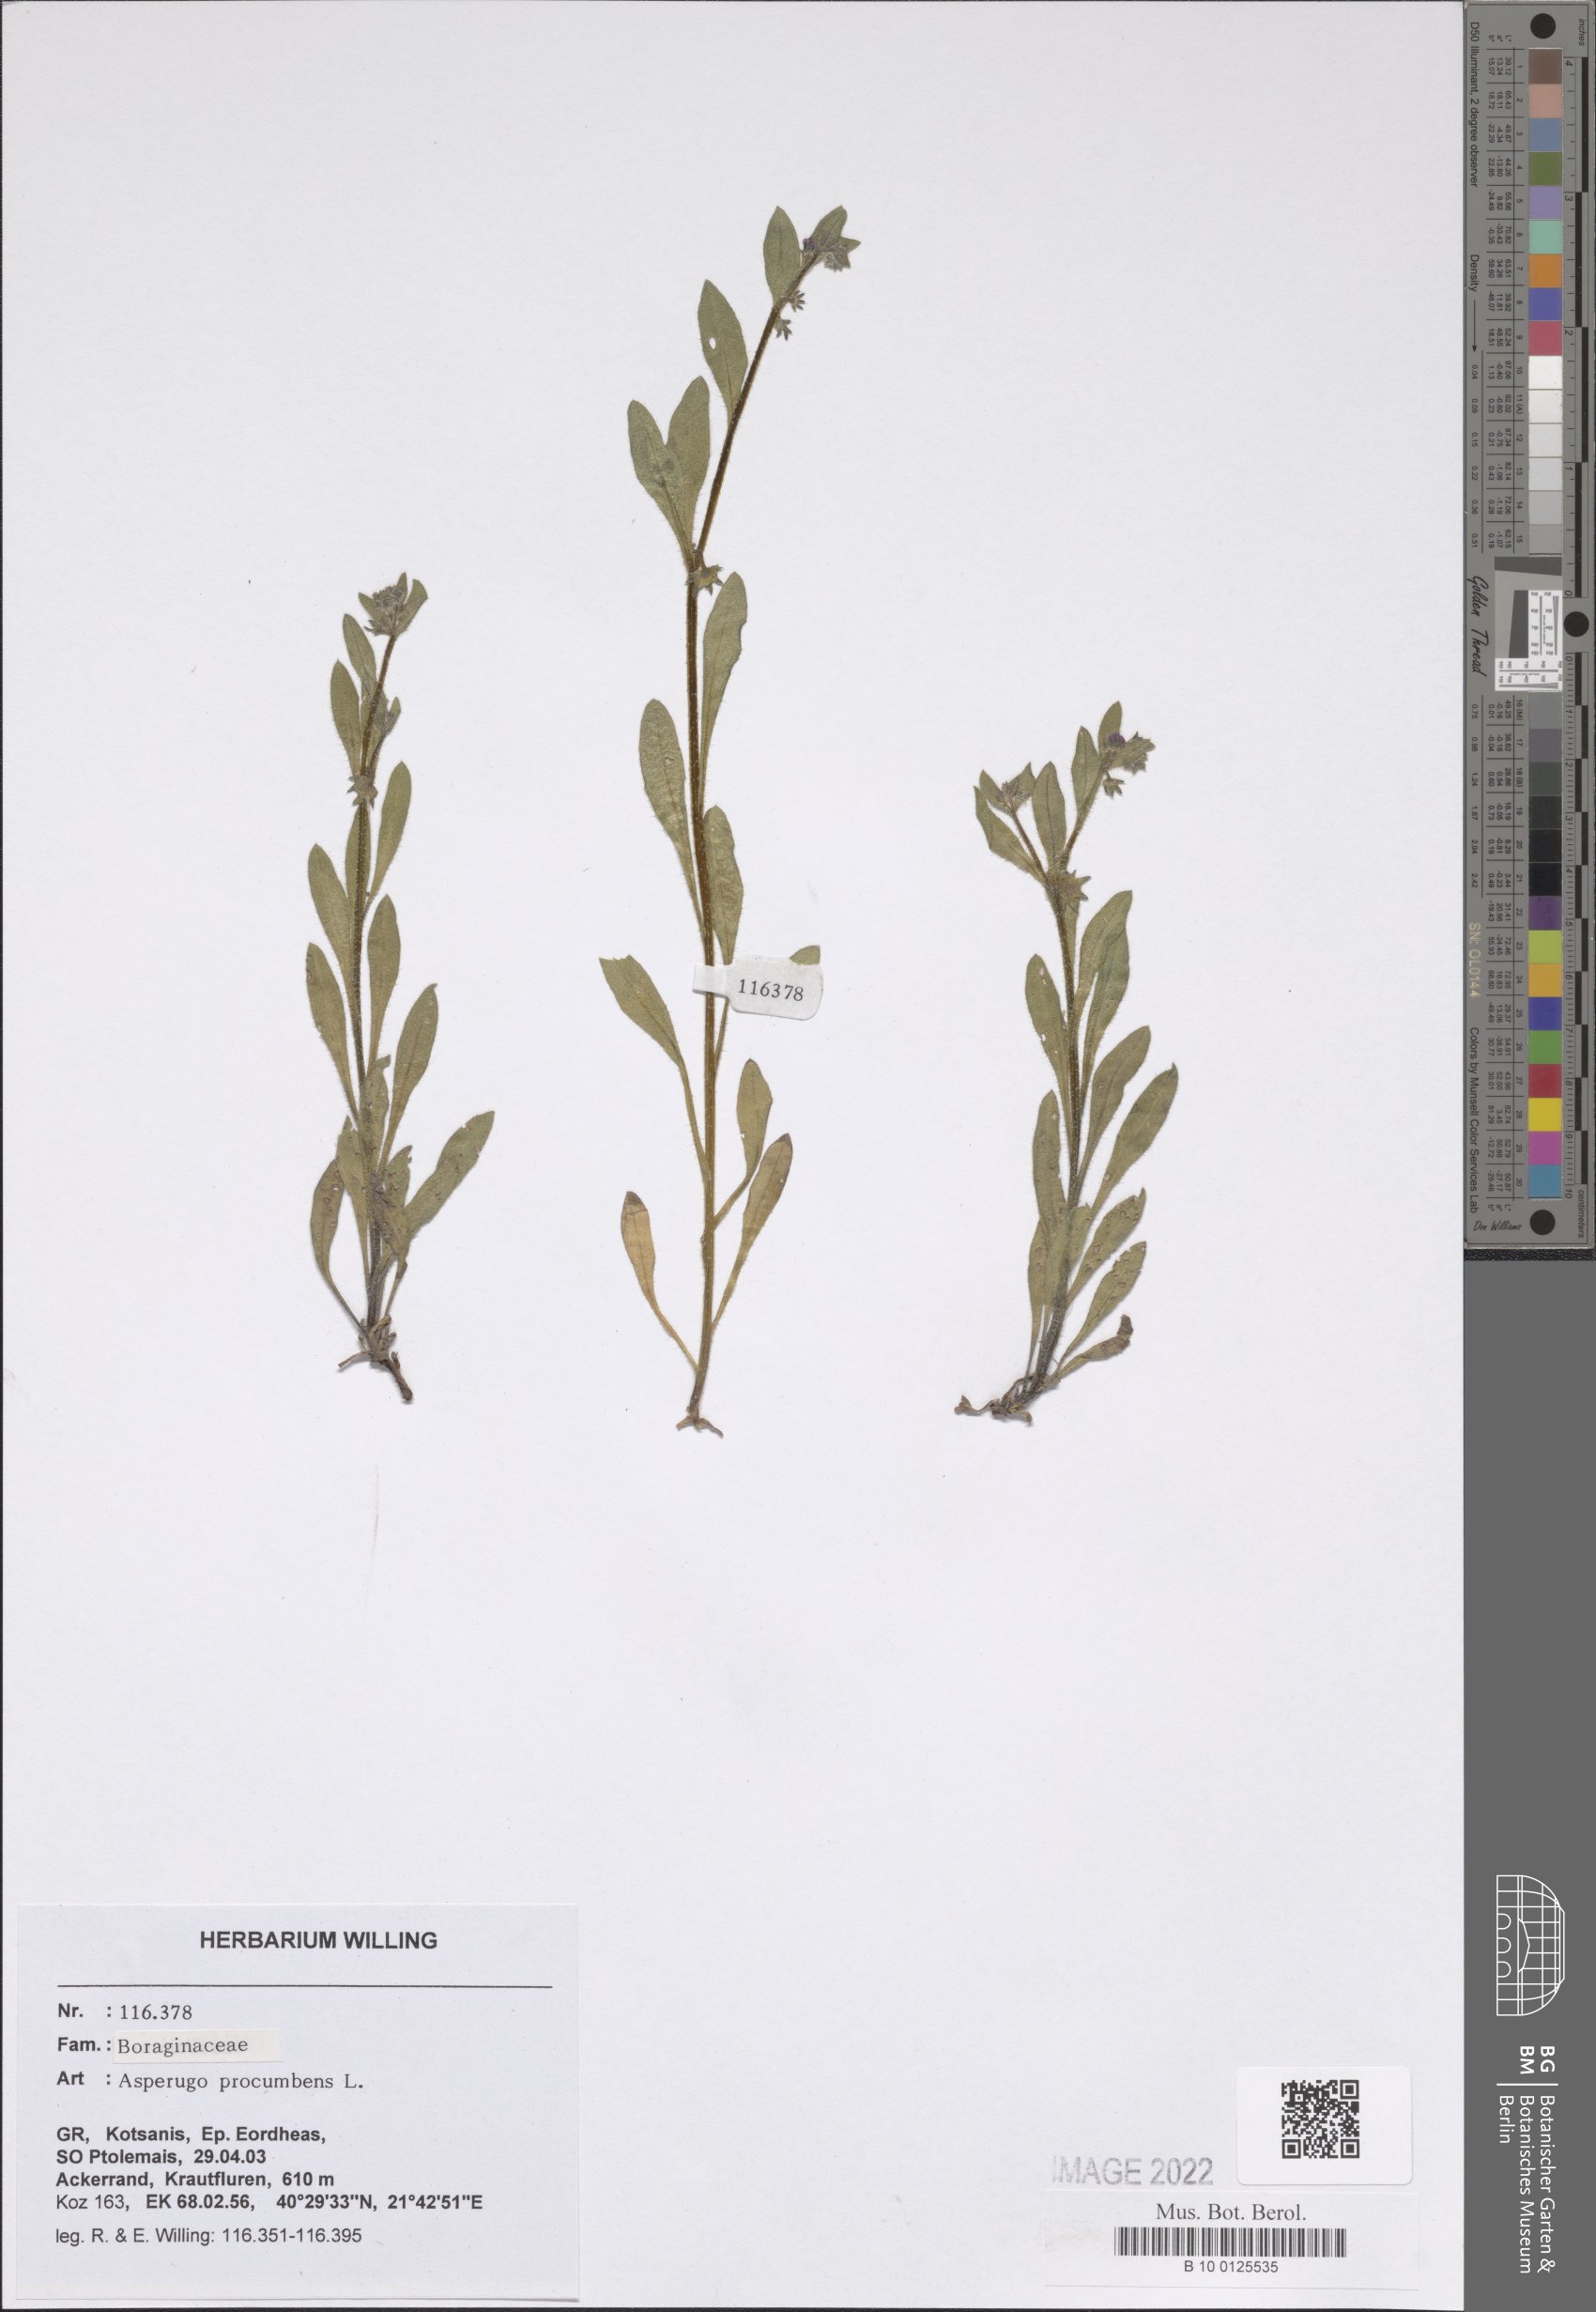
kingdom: Plantae
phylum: Tracheophyta
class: Magnoliopsida
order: Boraginales
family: Boraginaceae
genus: Asperugo
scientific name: Asperugo procumbens
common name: Madwort
